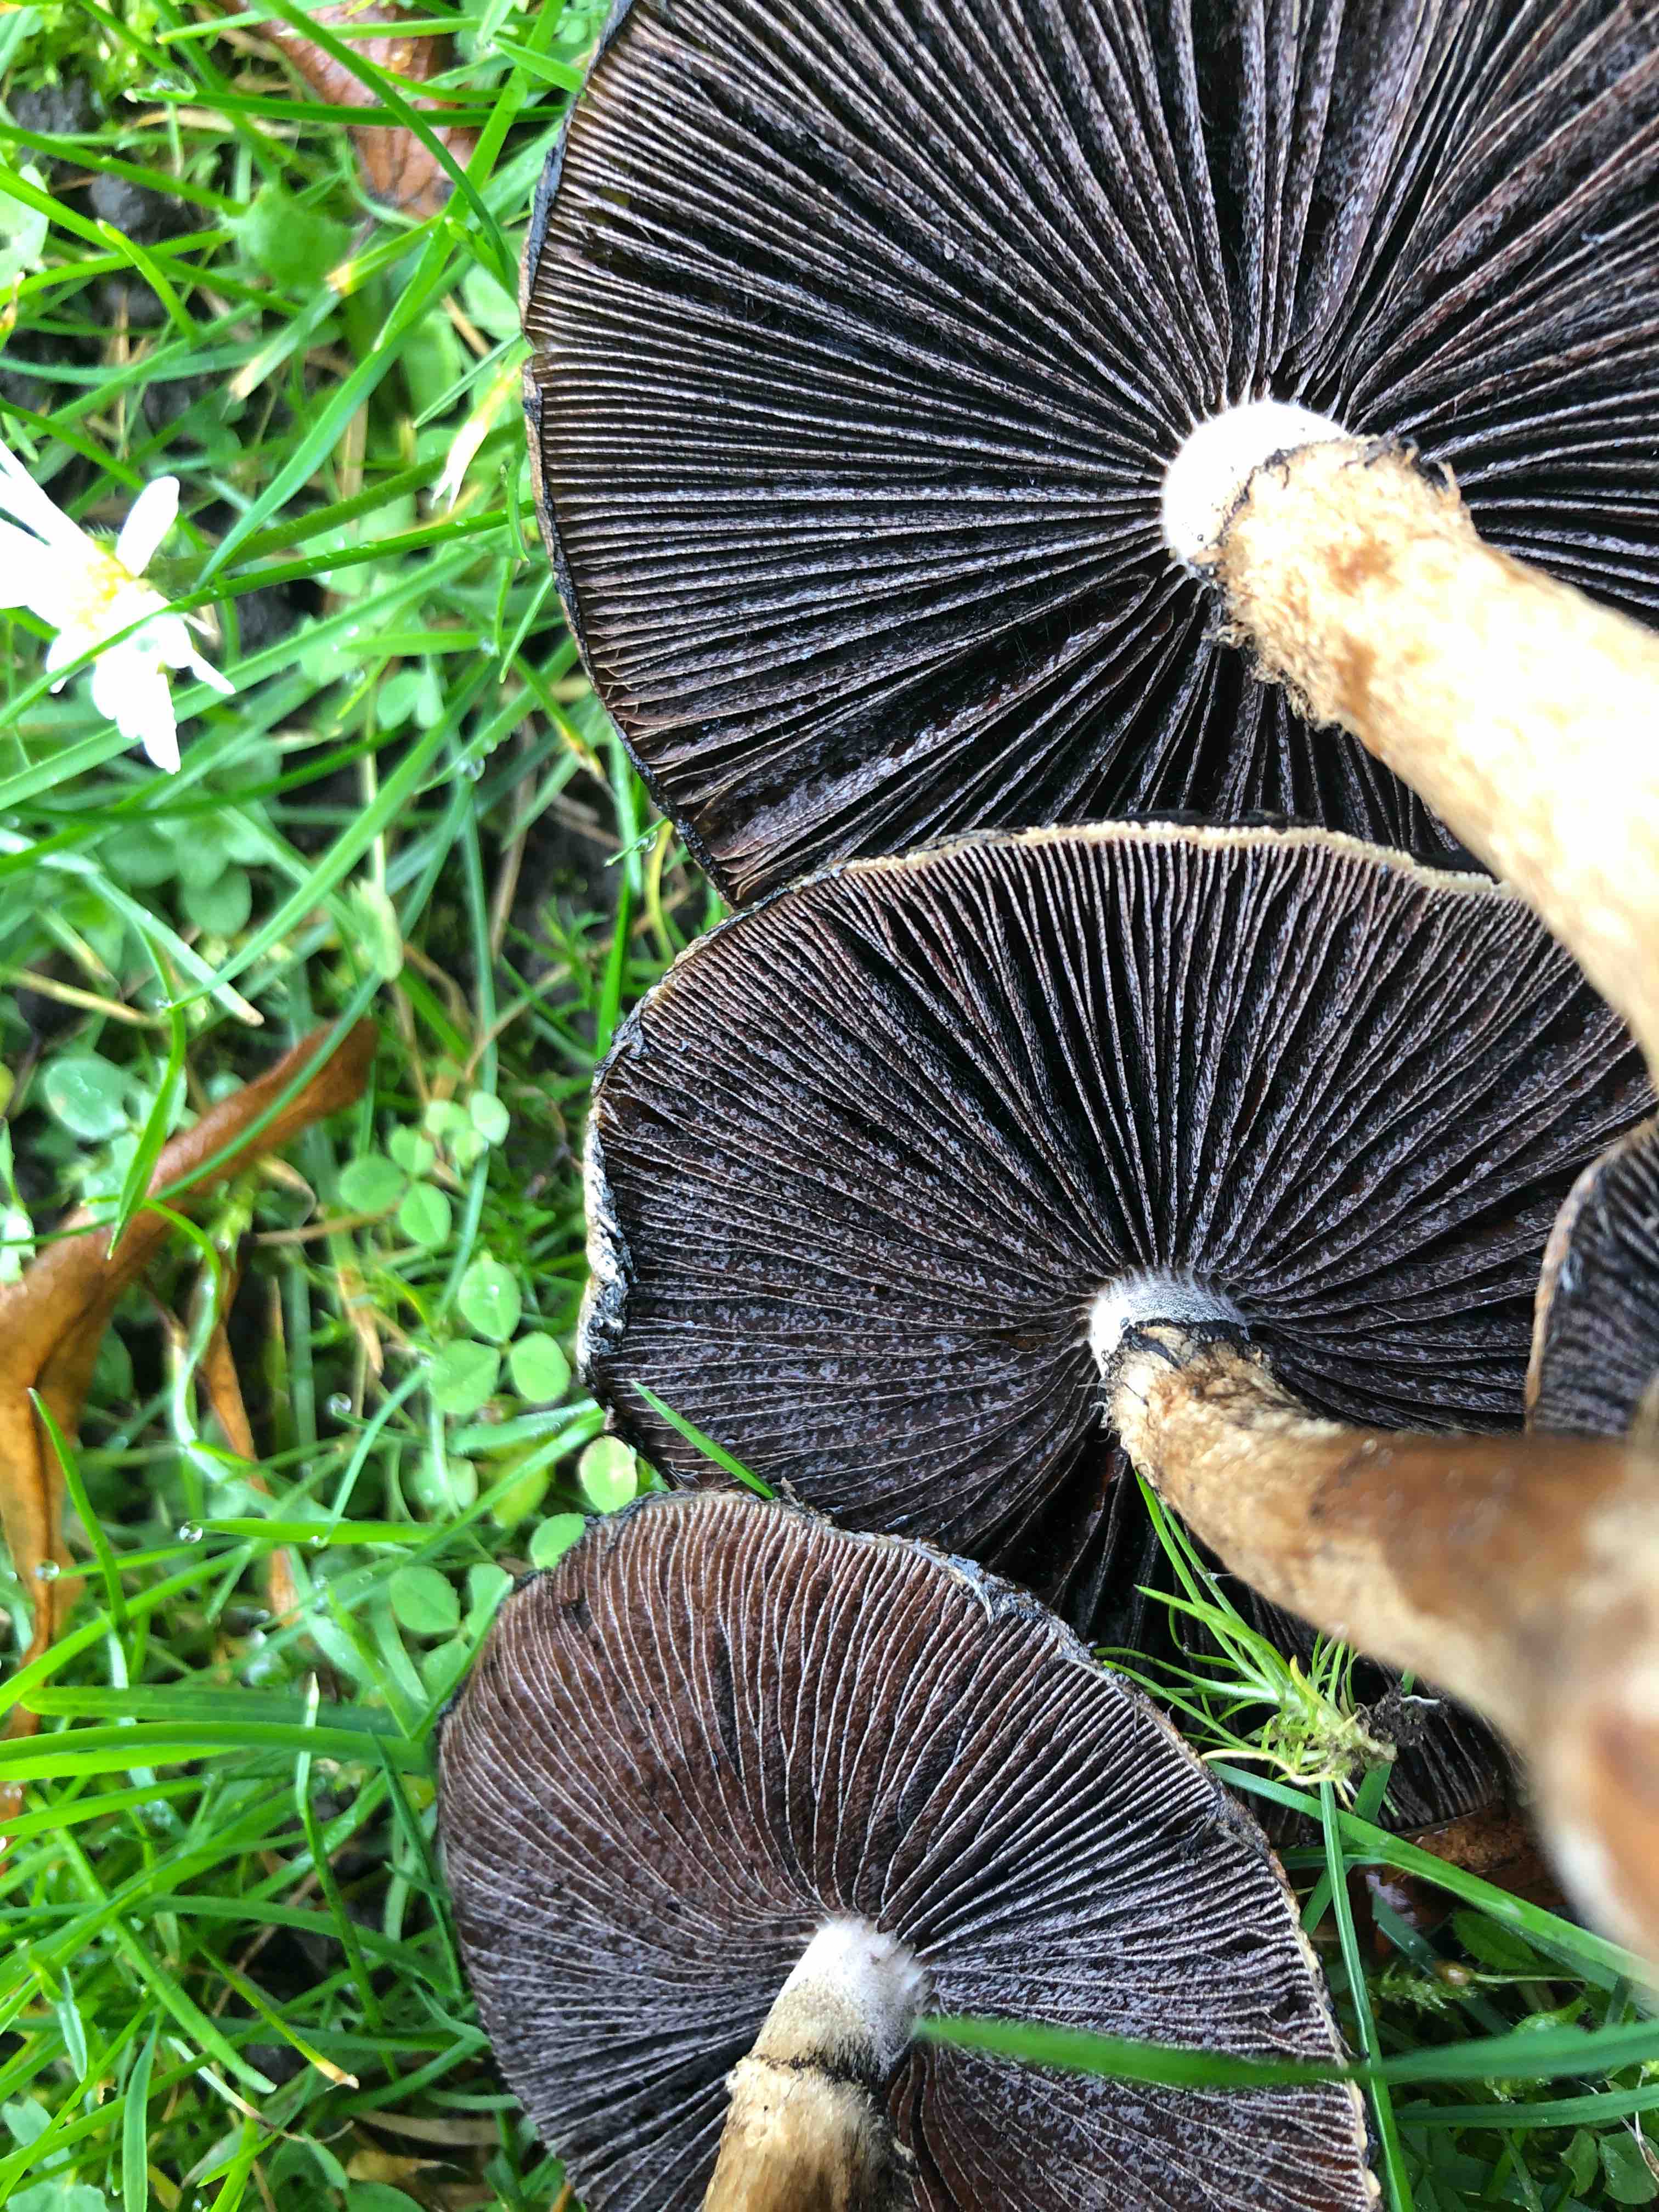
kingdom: Fungi
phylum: Basidiomycota
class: Agaricomycetes
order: Agaricales
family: Psathyrellaceae
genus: Lacrymaria
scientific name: Lacrymaria lacrymabunda
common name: grædende mørkhat
